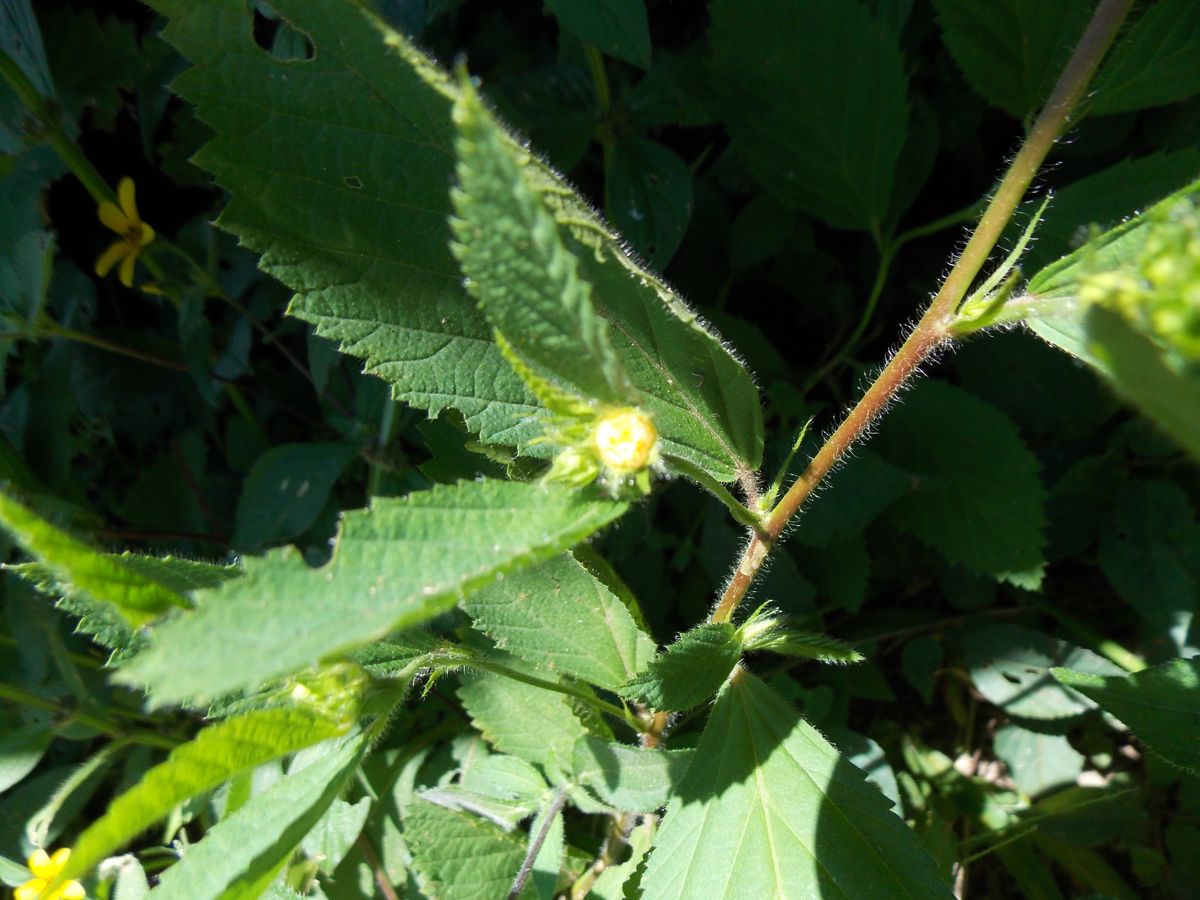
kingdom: Plantae
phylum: Tracheophyta
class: Magnoliopsida
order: Malvales
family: Malvaceae
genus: Sida
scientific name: Sida acuta
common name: Common wireweed
